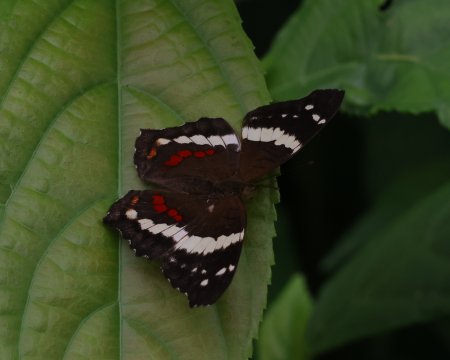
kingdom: Animalia
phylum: Arthropoda
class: Insecta
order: Lepidoptera
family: Nymphalidae
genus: Anartia
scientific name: Anartia fatima
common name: Banded Peacock
